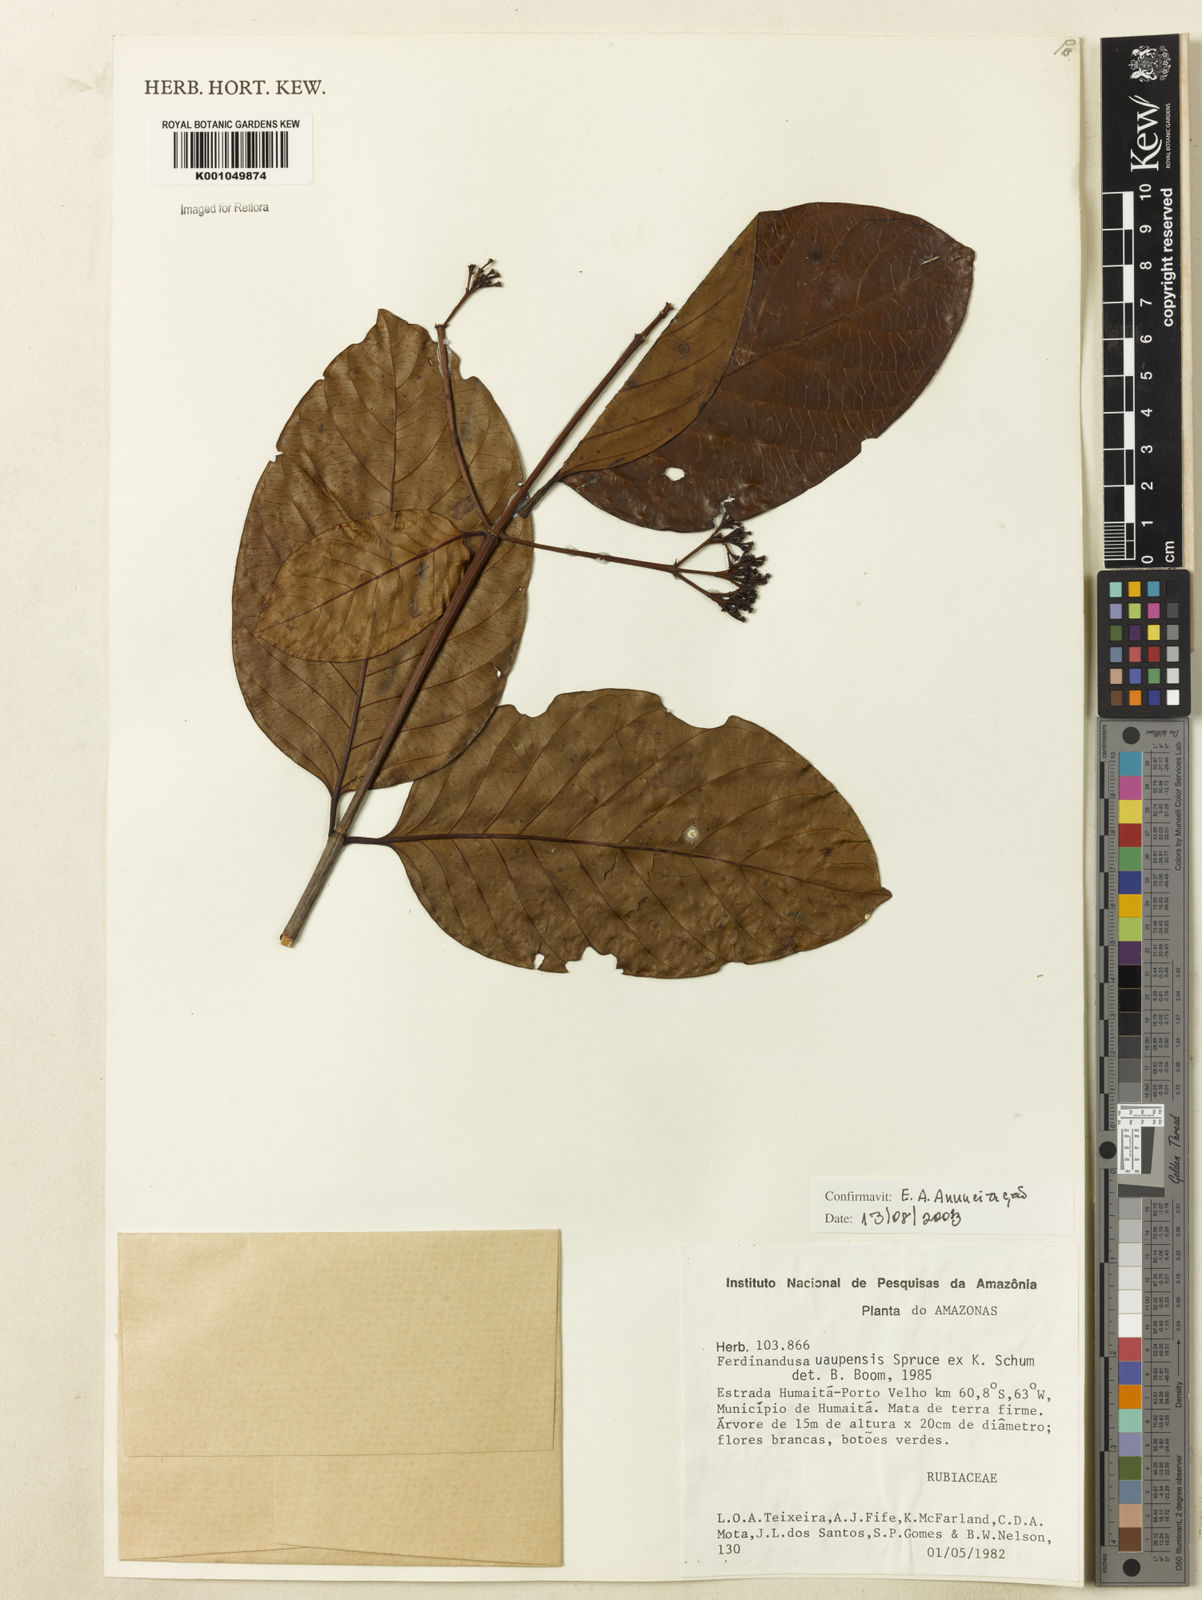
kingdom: Plantae
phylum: Tracheophyta
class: Magnoliopsida
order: Gentianales
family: Rubiaceae
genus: Ferdinandusa
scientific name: Ferdinandusa uaupensis
